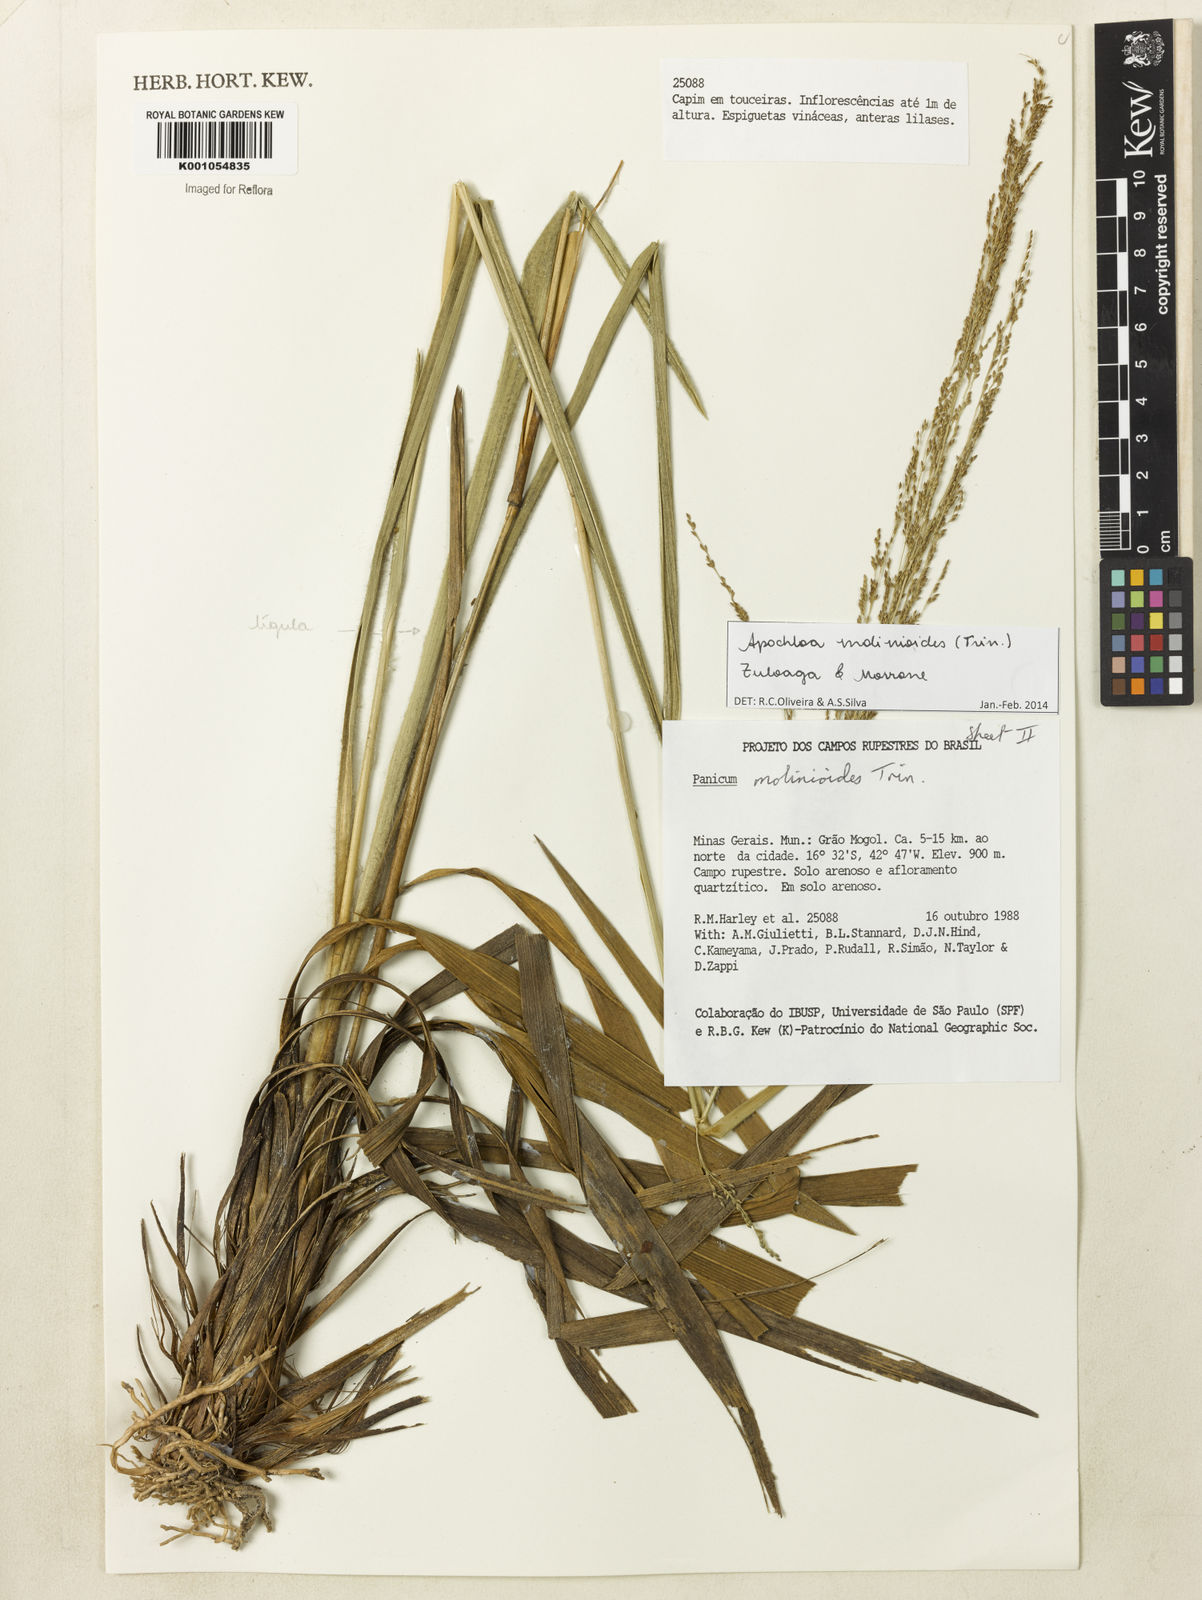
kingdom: Plantae
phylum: Tracheophyta
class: Liliopsida
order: Poales
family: Poaceae
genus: Apochloa
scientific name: Apochloa molinioides
